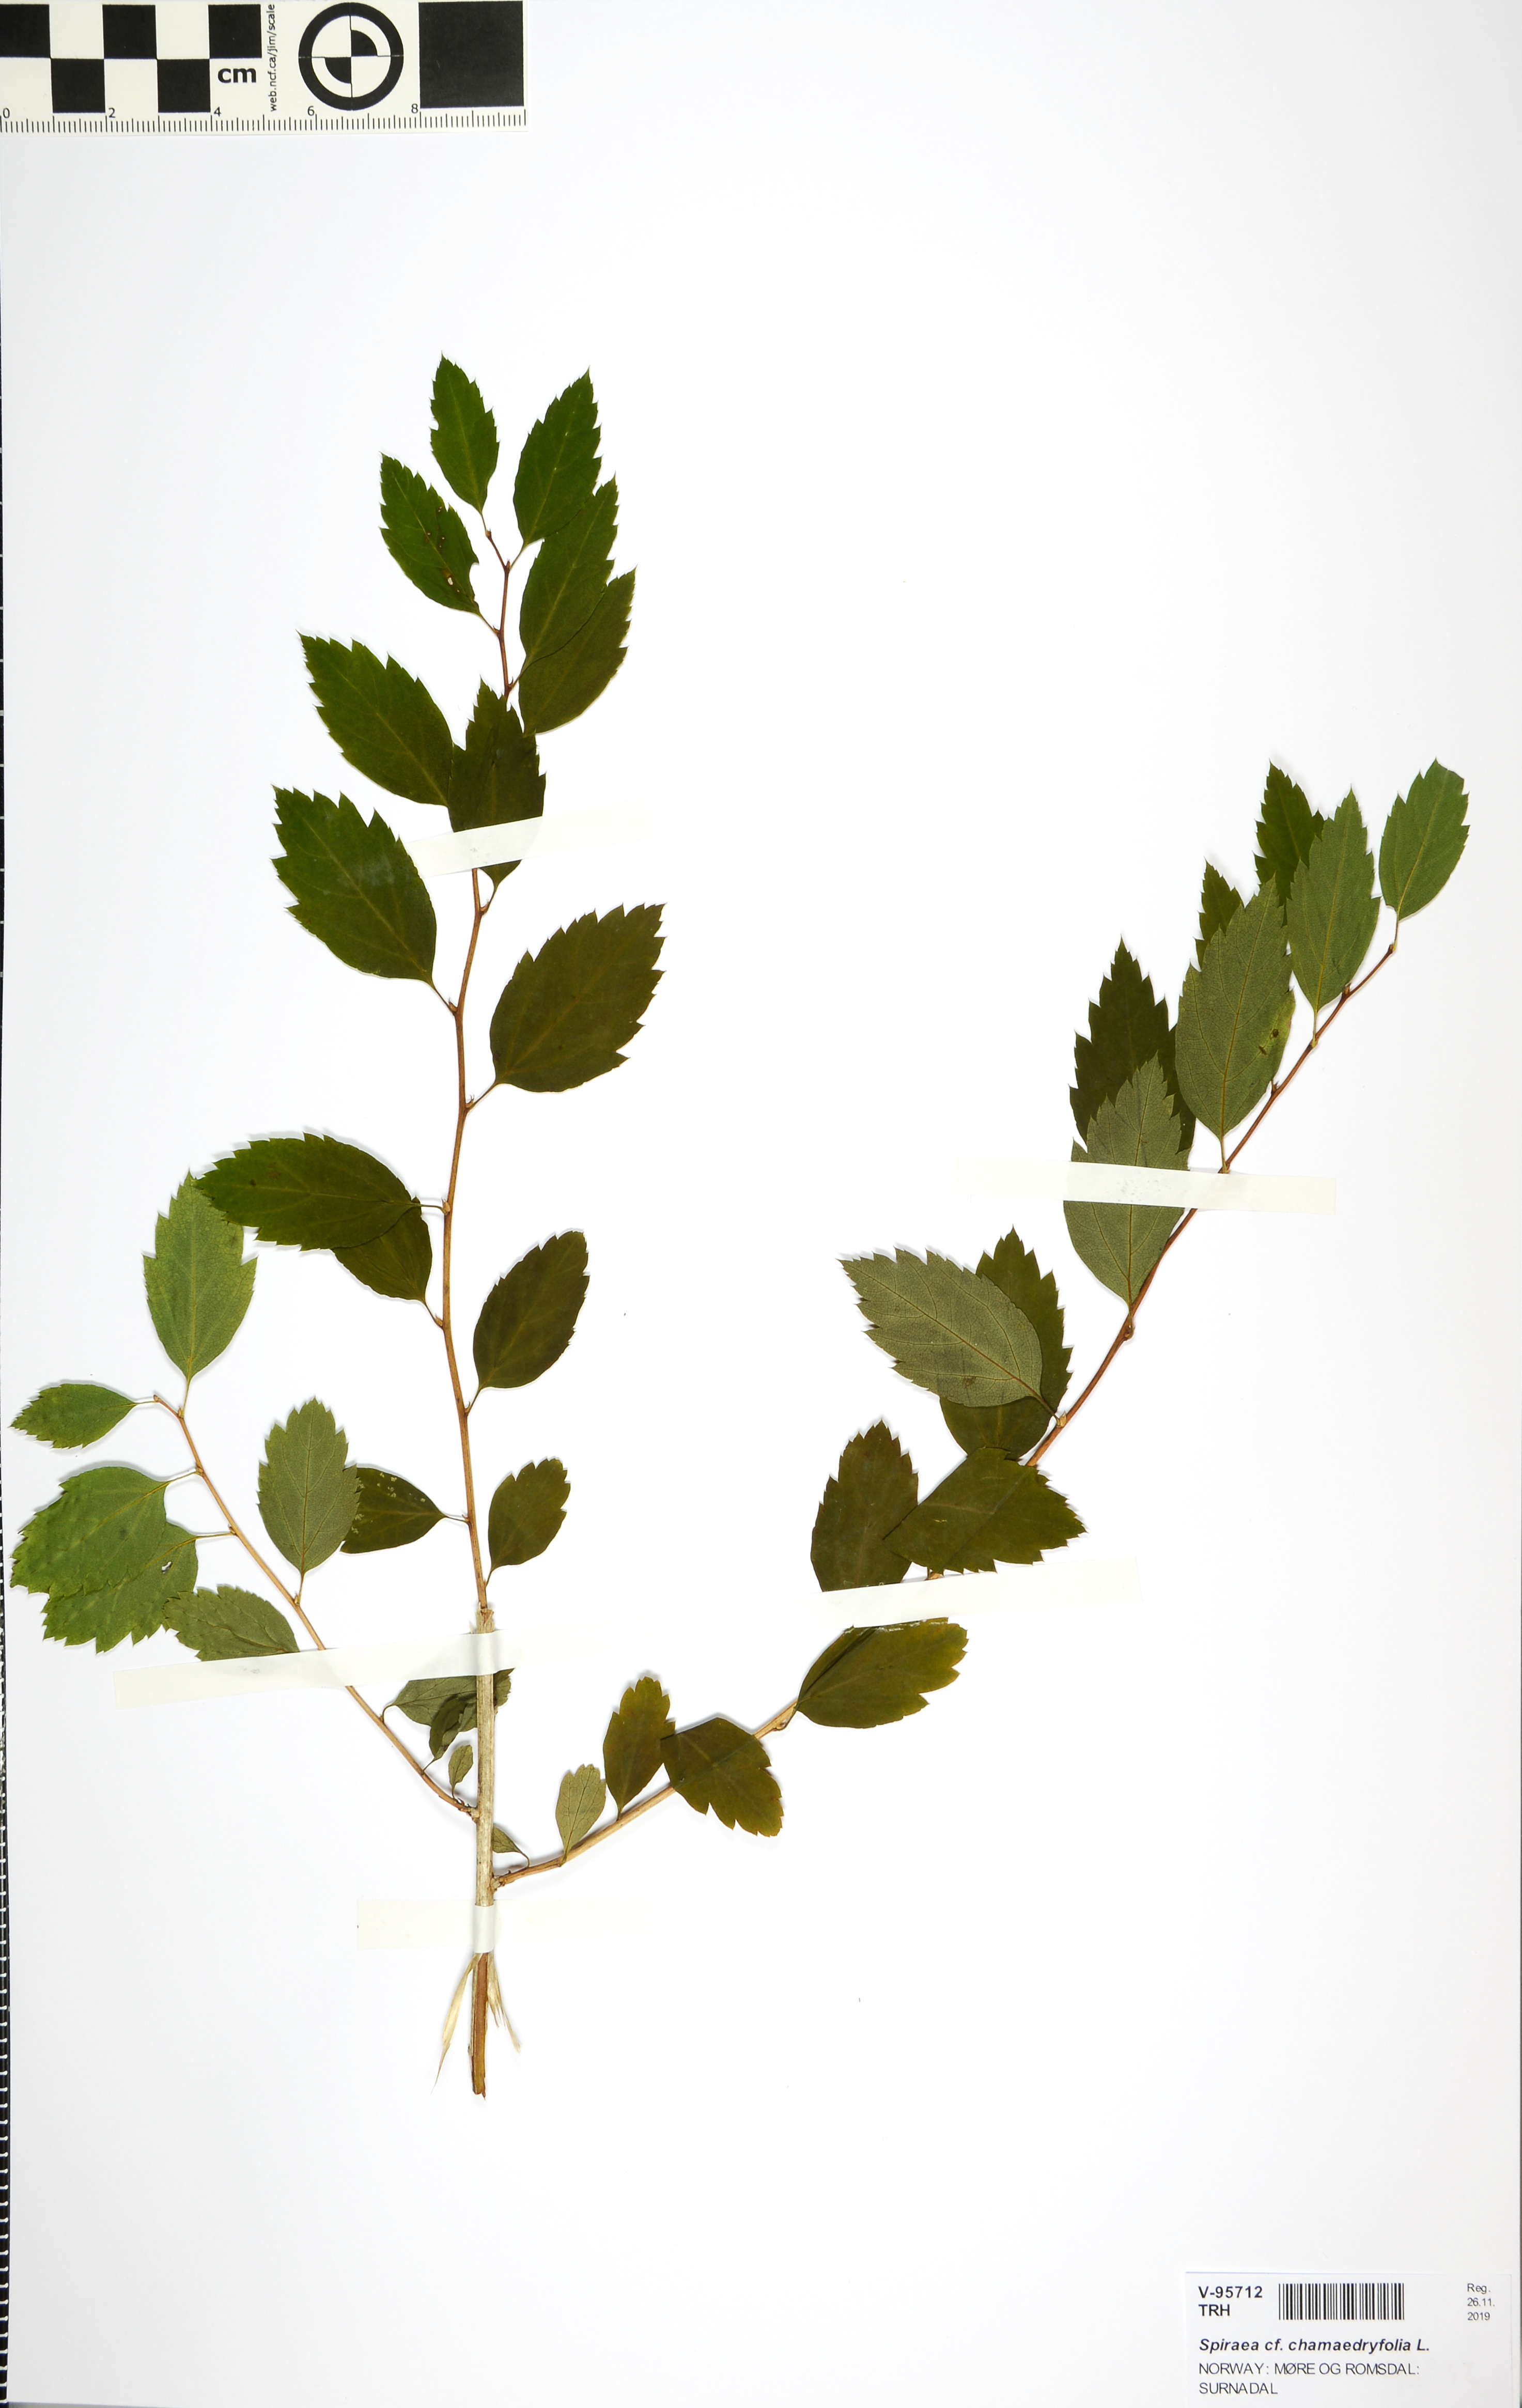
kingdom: Plantae
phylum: Tracheophyta
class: Magnoliopsida
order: Rosales
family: Rosaceae
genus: Spiraea
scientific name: Spiraea chamaedryfolia
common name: Elm-leaved spiraea
